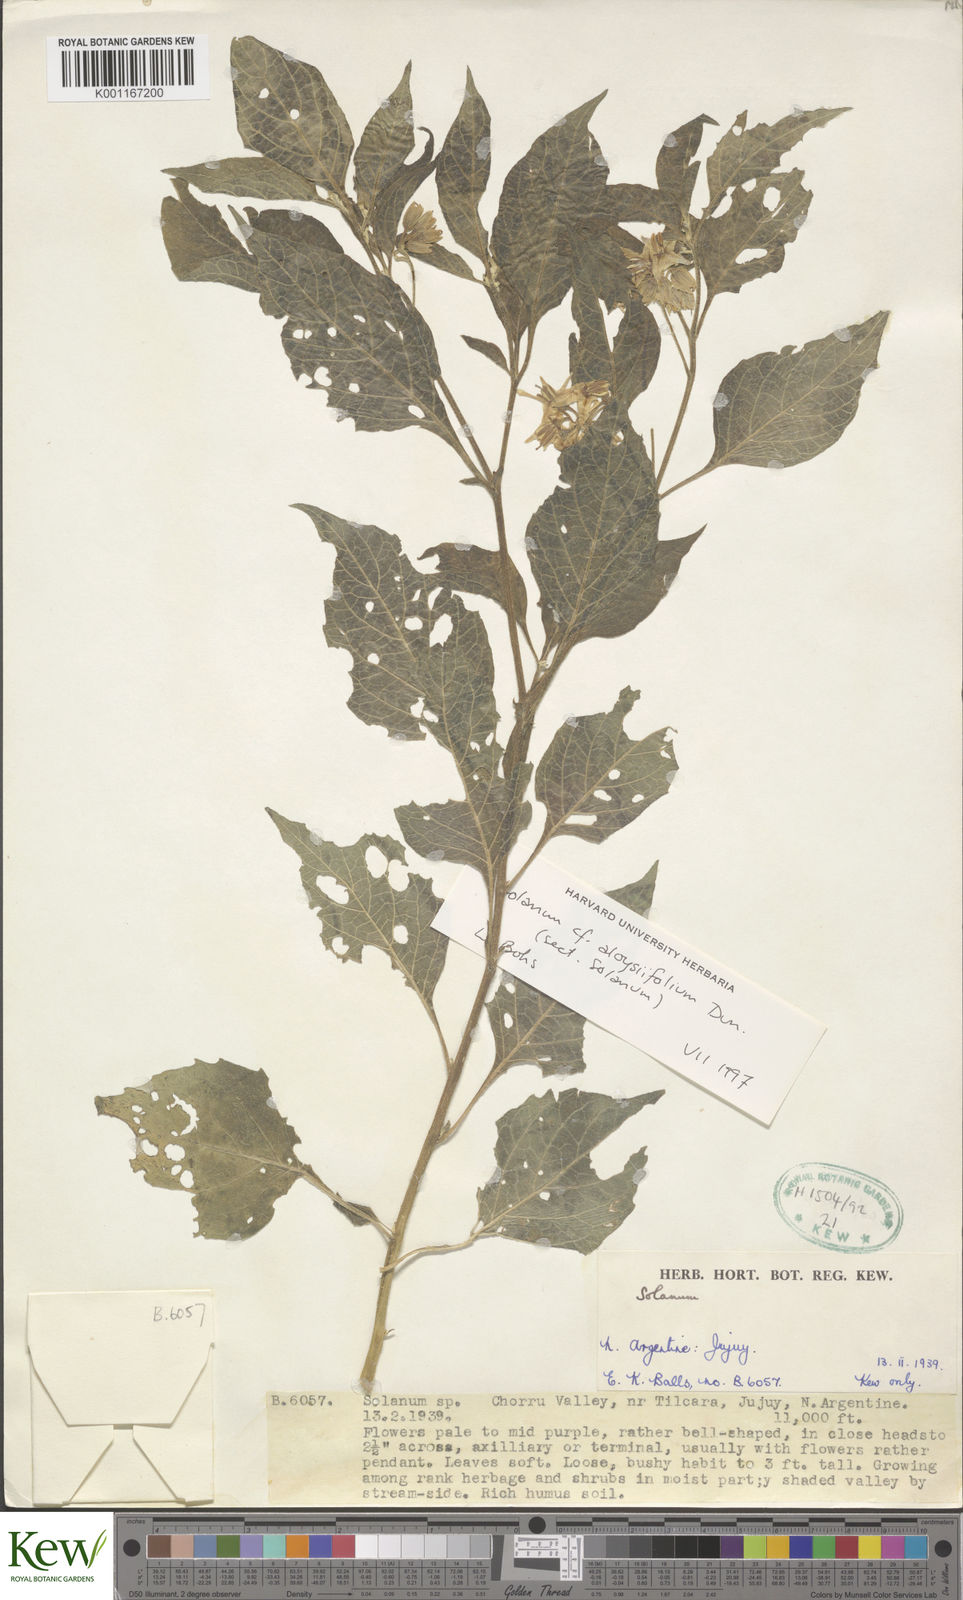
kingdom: Plantae
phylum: Tracheophyta
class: Magnoliopsida
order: Solanales
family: Solanaceae
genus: Solanum
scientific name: Solanum aloysiifolium
